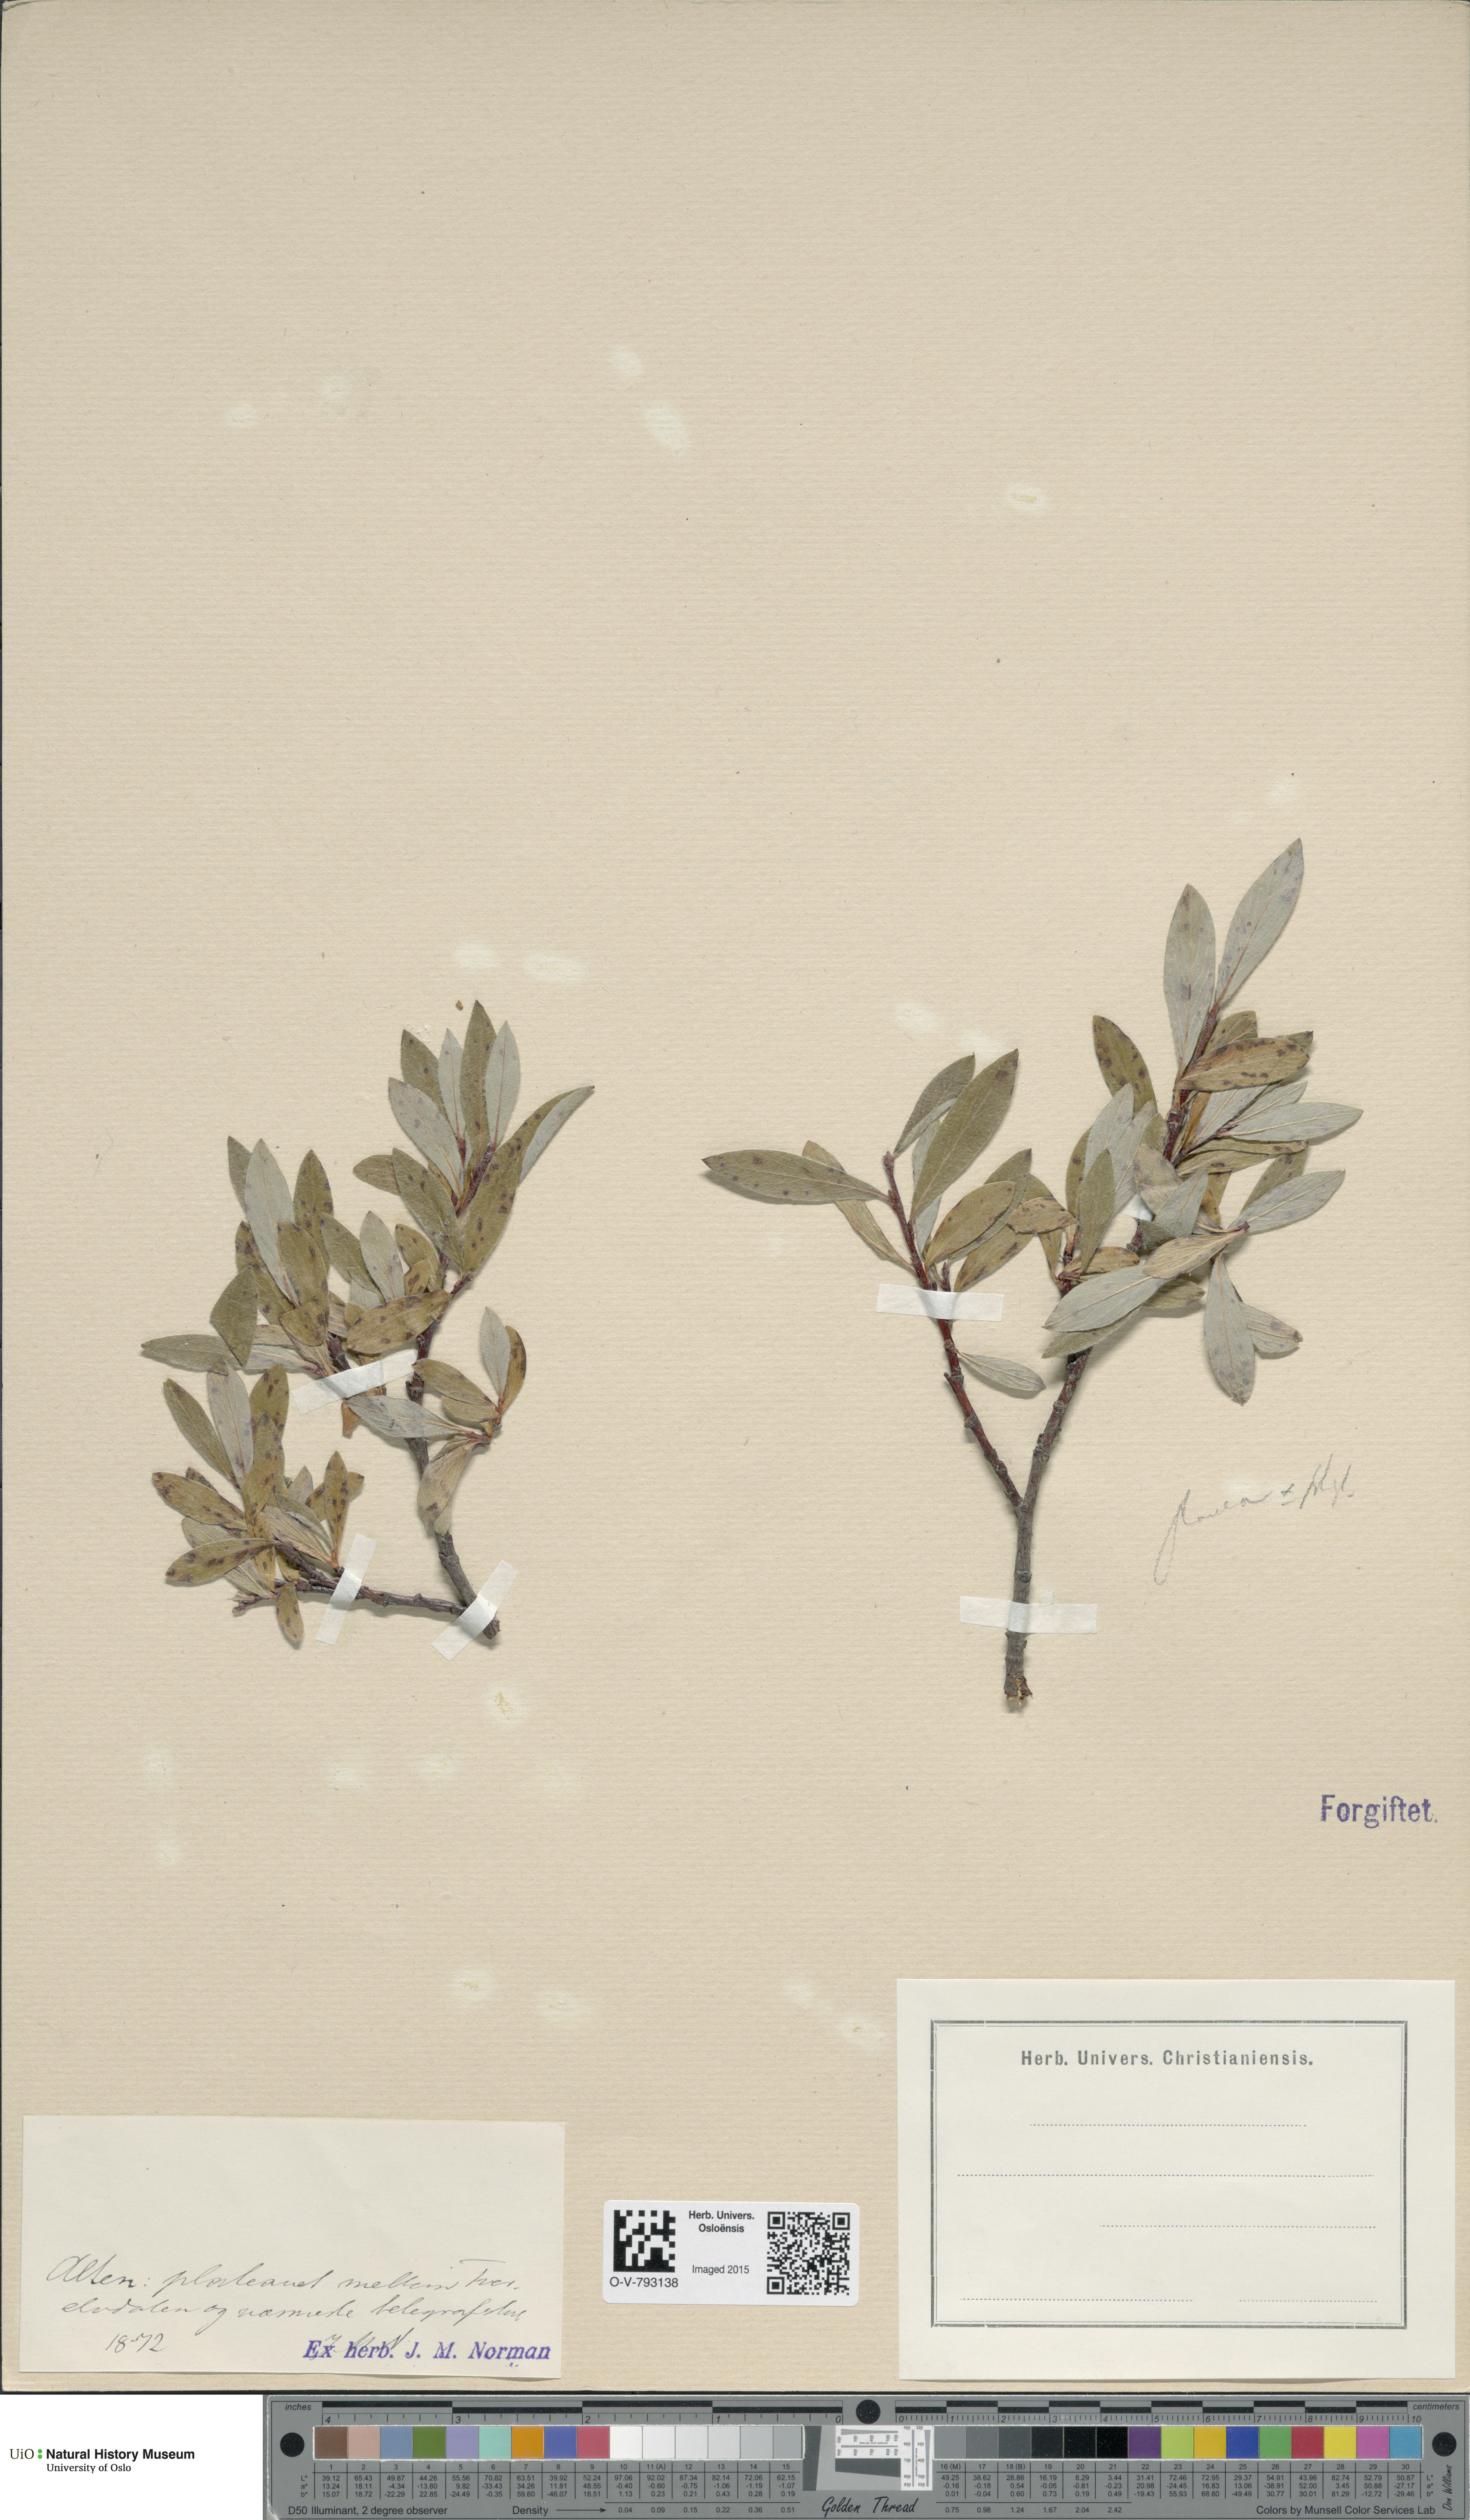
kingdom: Plantae
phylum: Tracheophyta
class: Magnoliopsida
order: Malpighiales
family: Salicaceae
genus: Salix
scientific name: Salix
